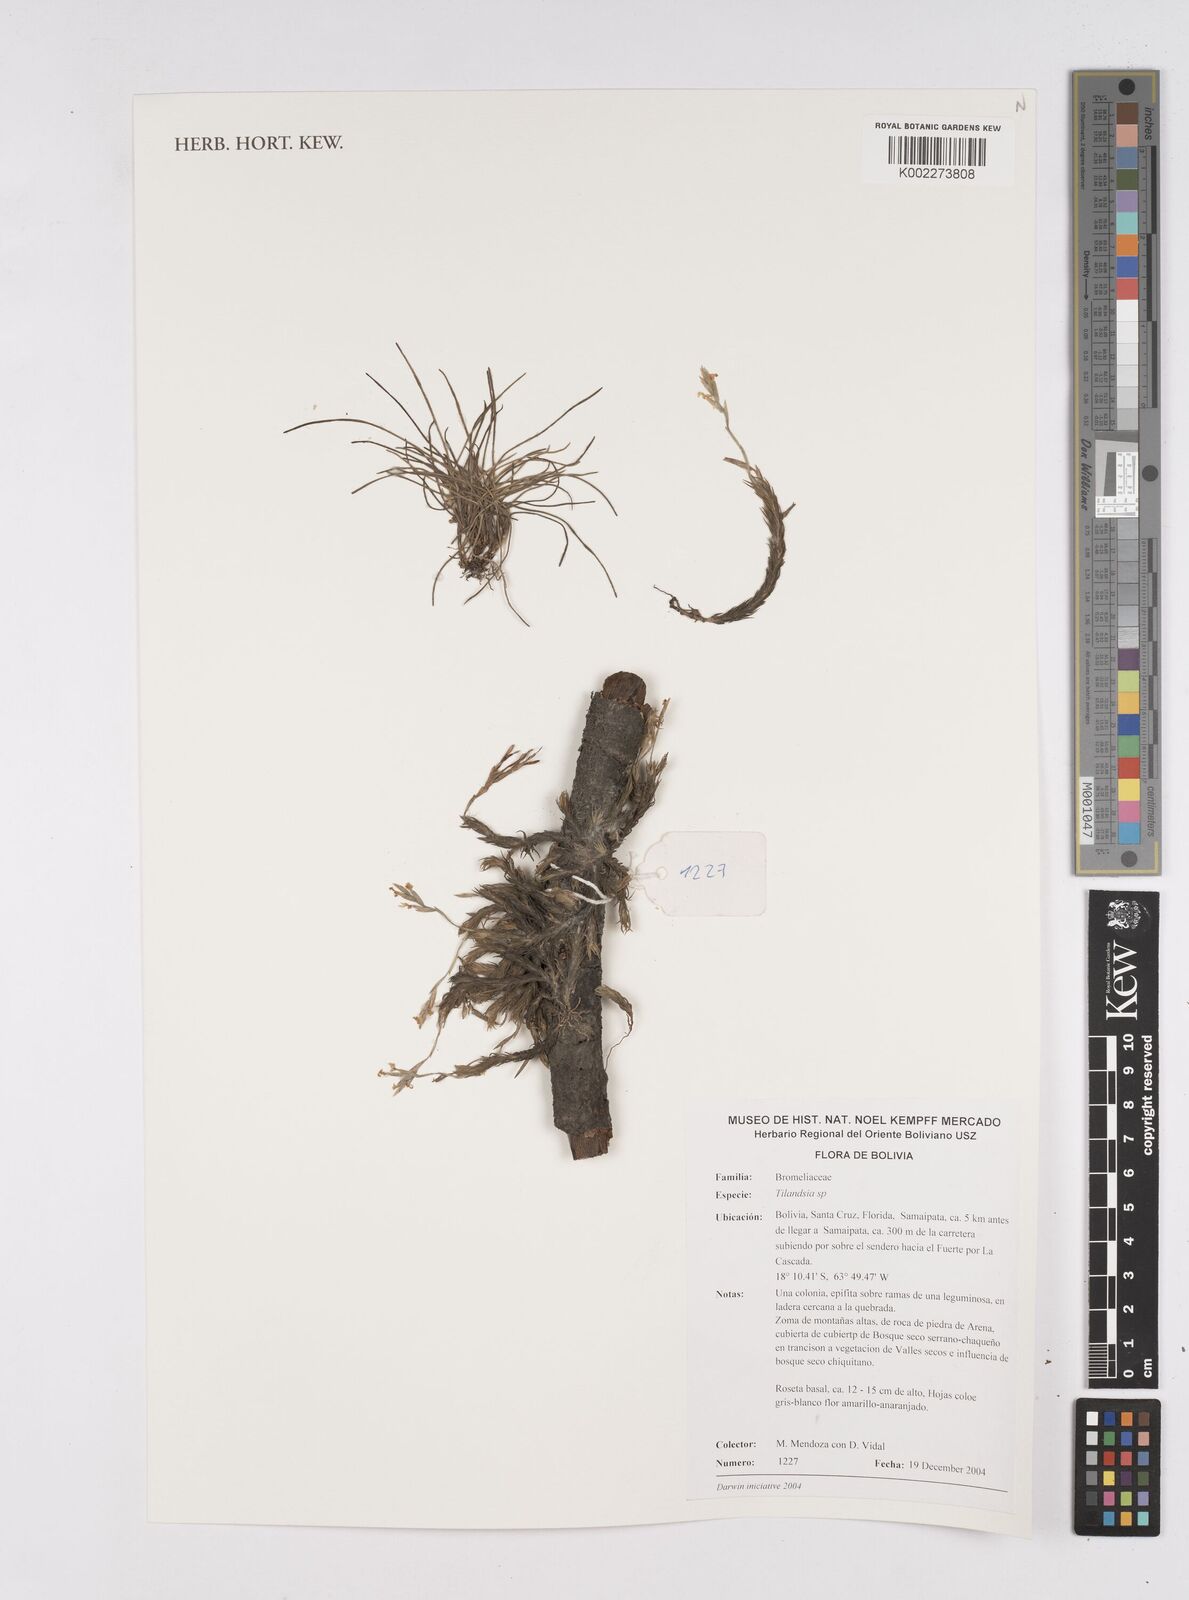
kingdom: Plantae
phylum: Tracheophyta
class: Liliopsida
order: Poales
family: Bromeliaceae
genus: Tillandsia
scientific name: Tillandsia
